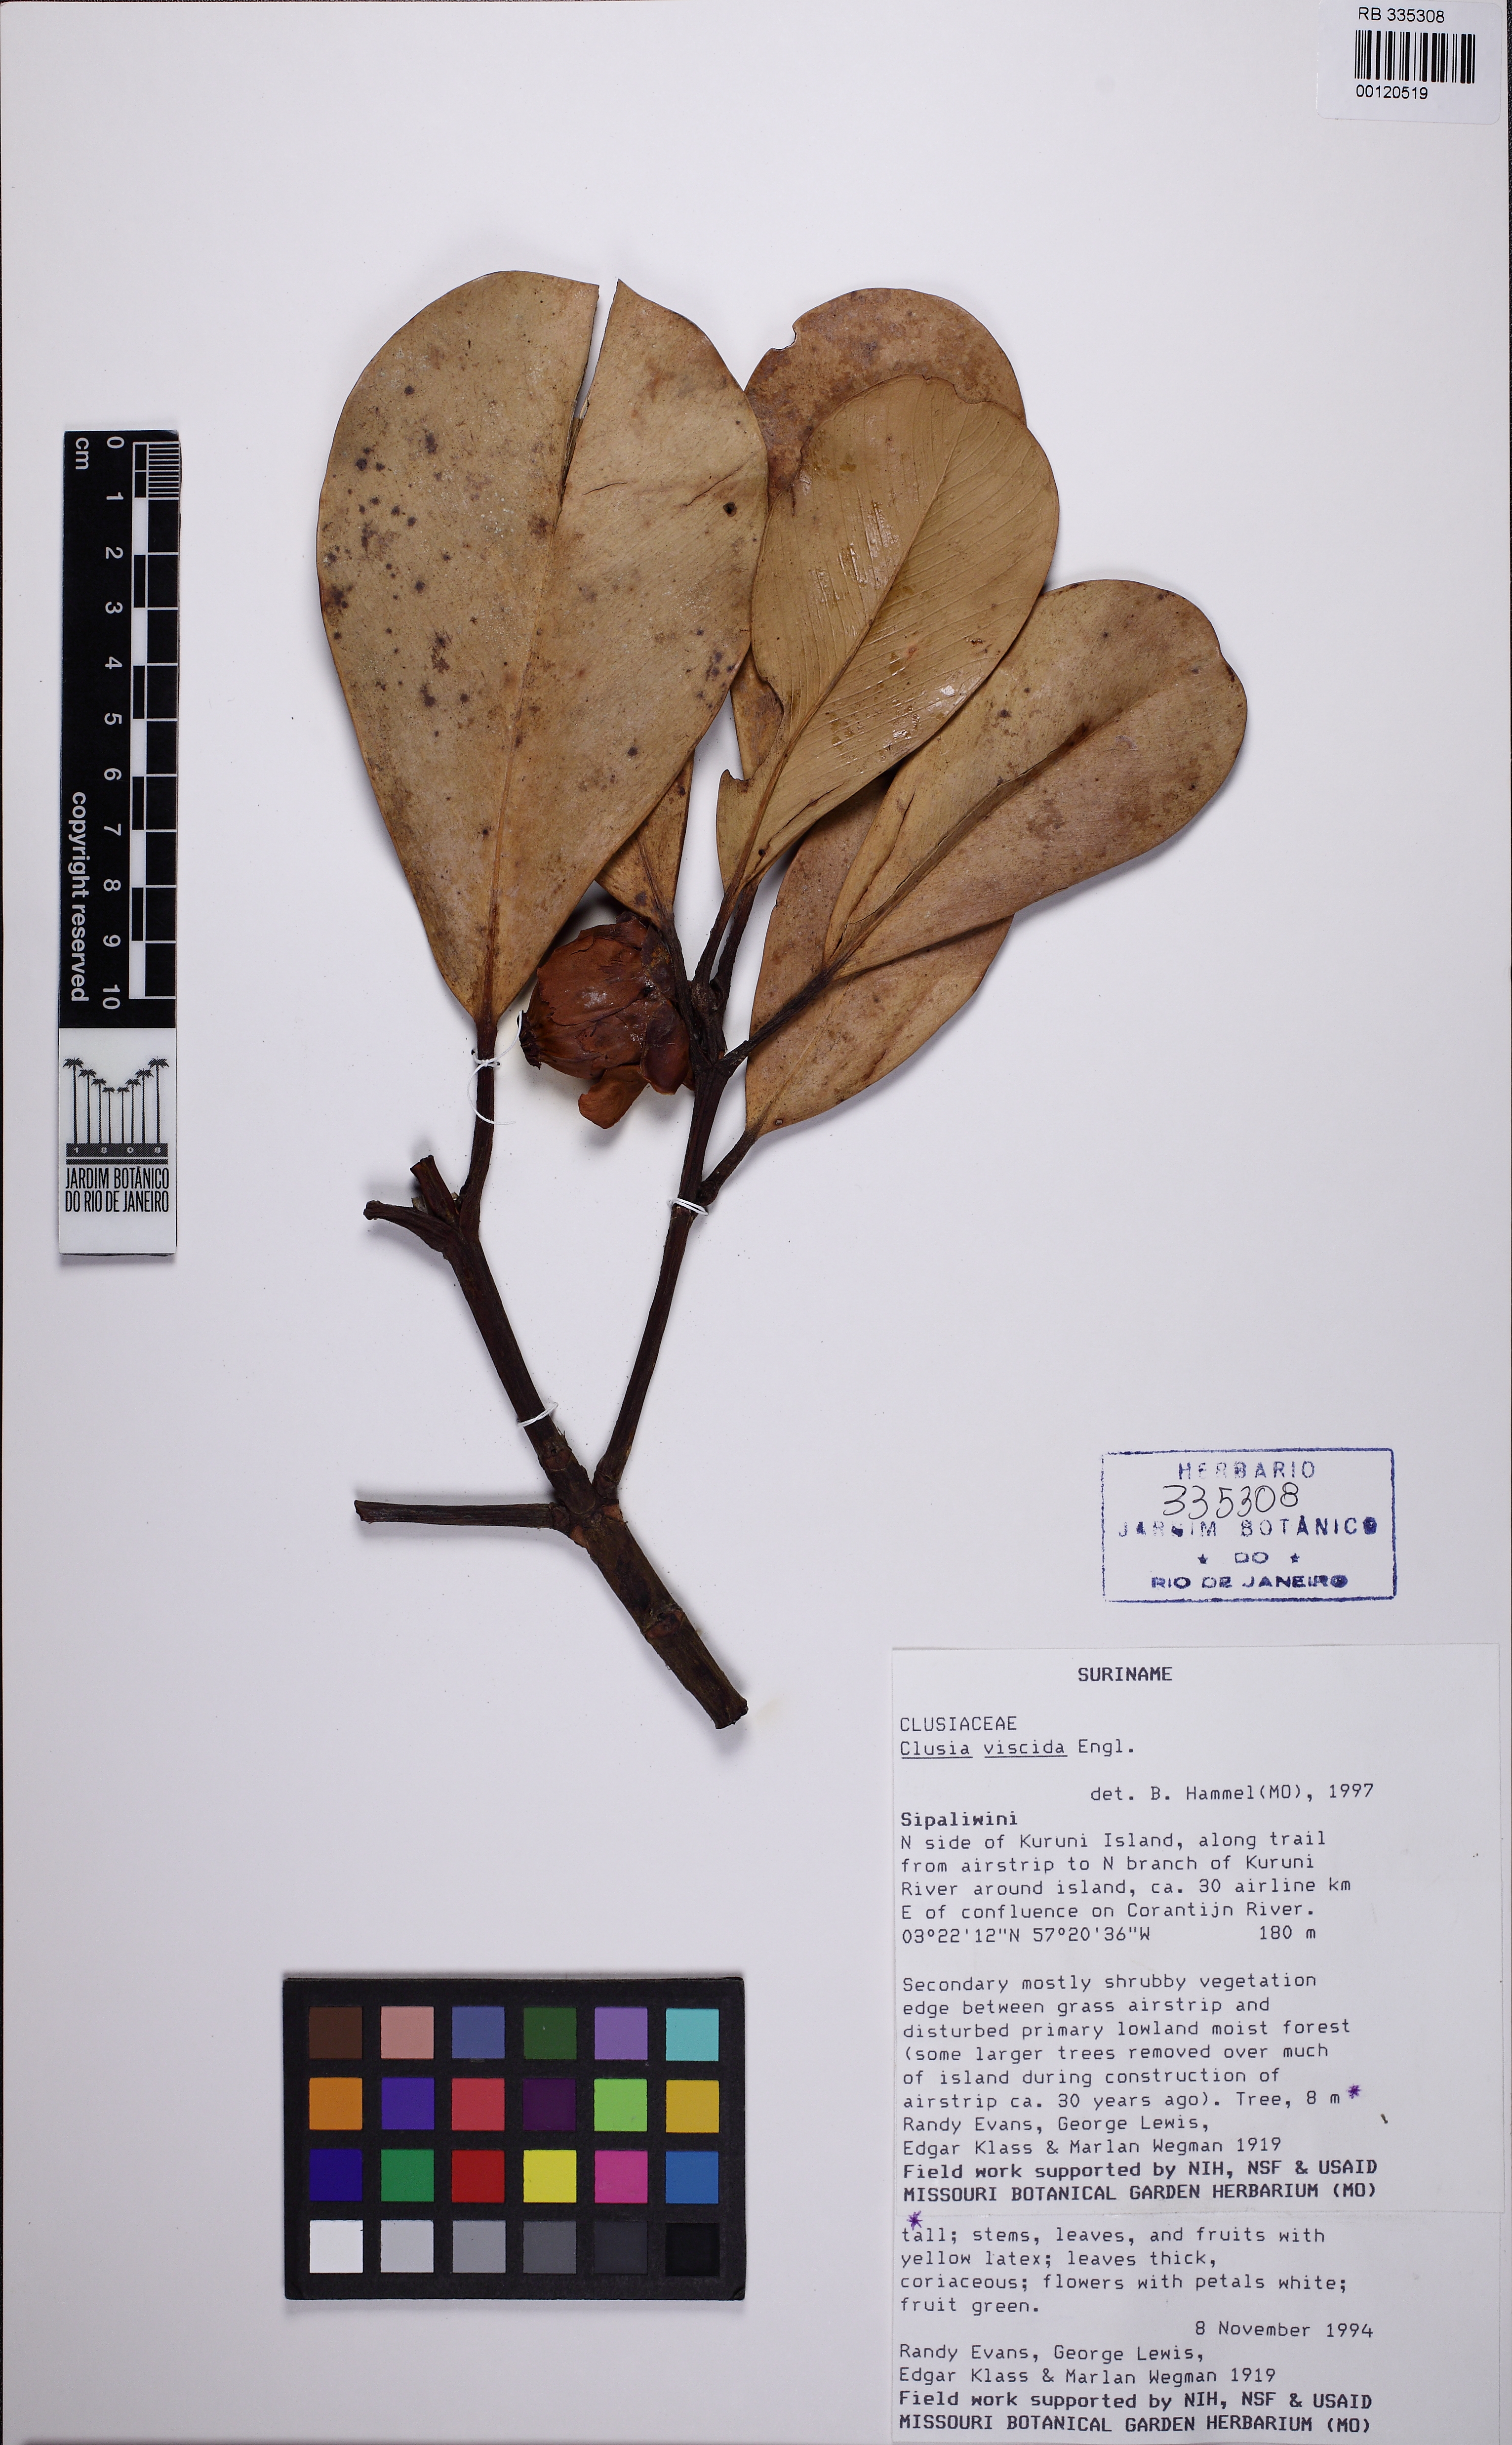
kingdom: Plantae
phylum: Tracheophyta
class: Magnoliopsida
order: Malpighiales
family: Clusiaceae
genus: Clusia
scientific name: Clusia viscida
